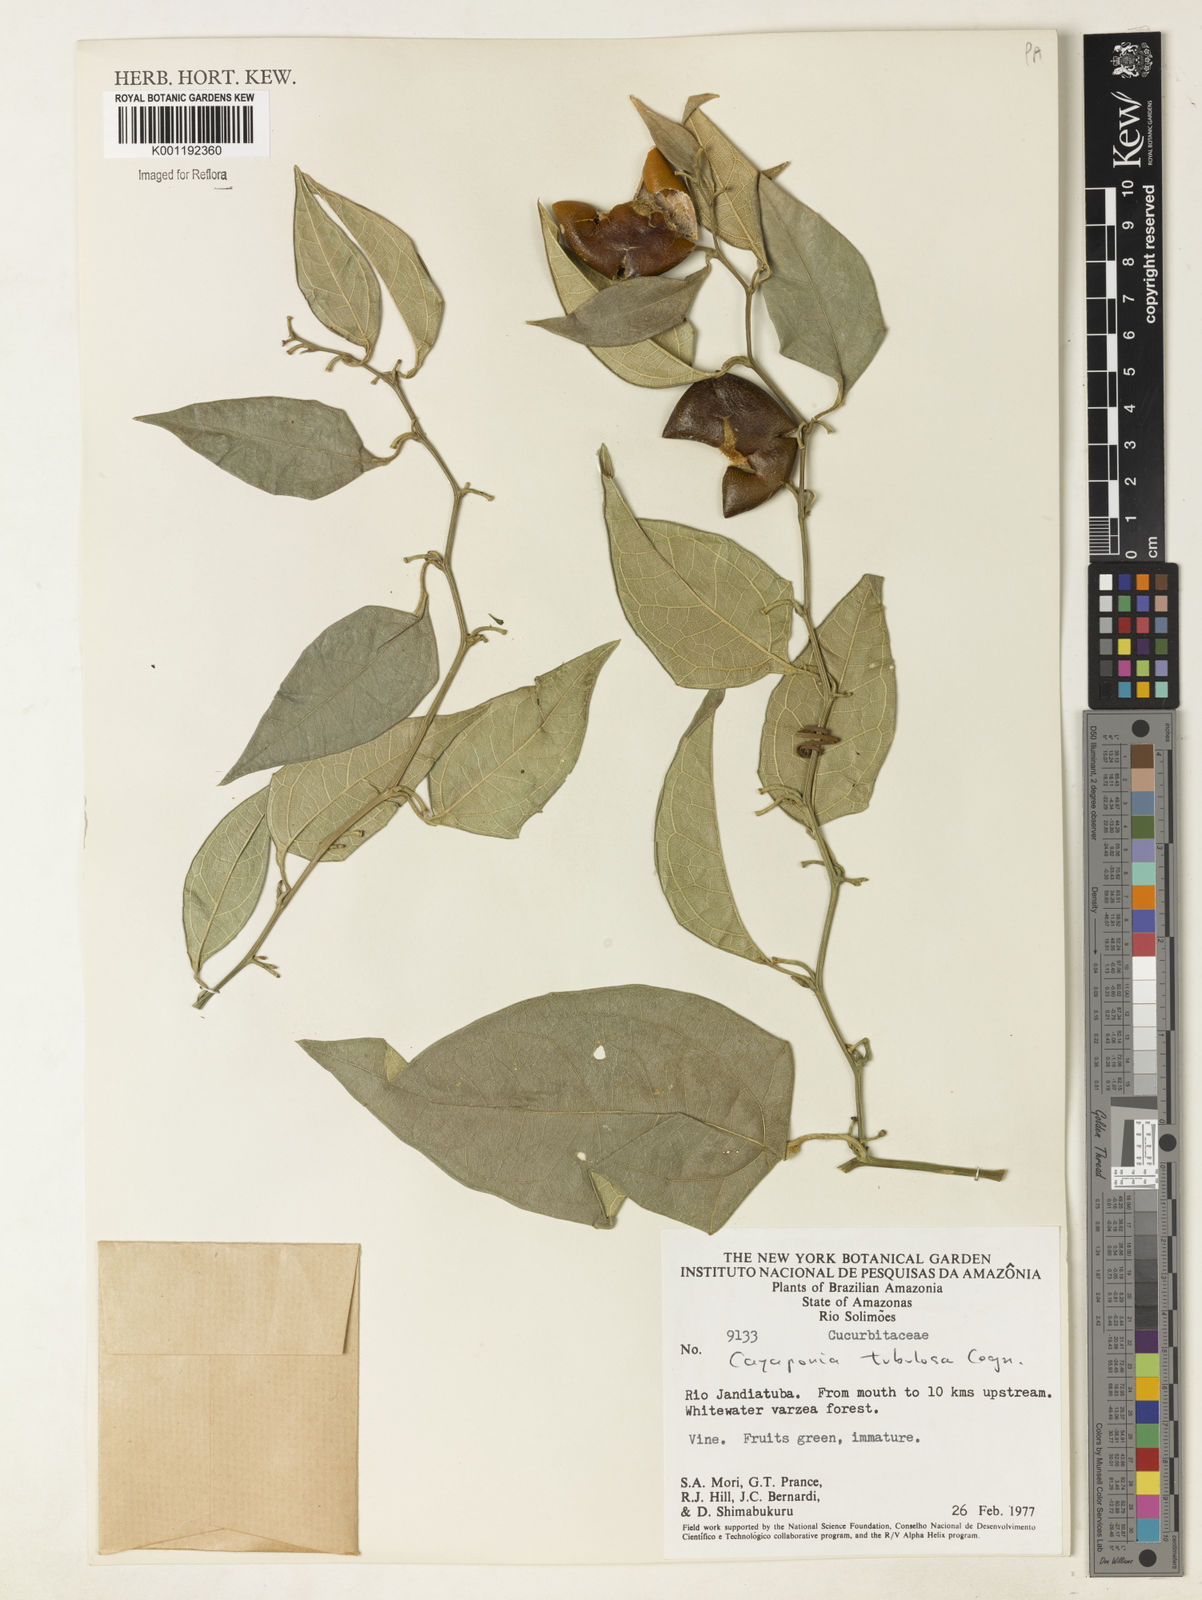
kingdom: Plantae
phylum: Tracheophyta
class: Magnoliopsida
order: Cucurbitales
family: Cucurbitaceae
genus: Cayaponia
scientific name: Cayaponia tubulosa
